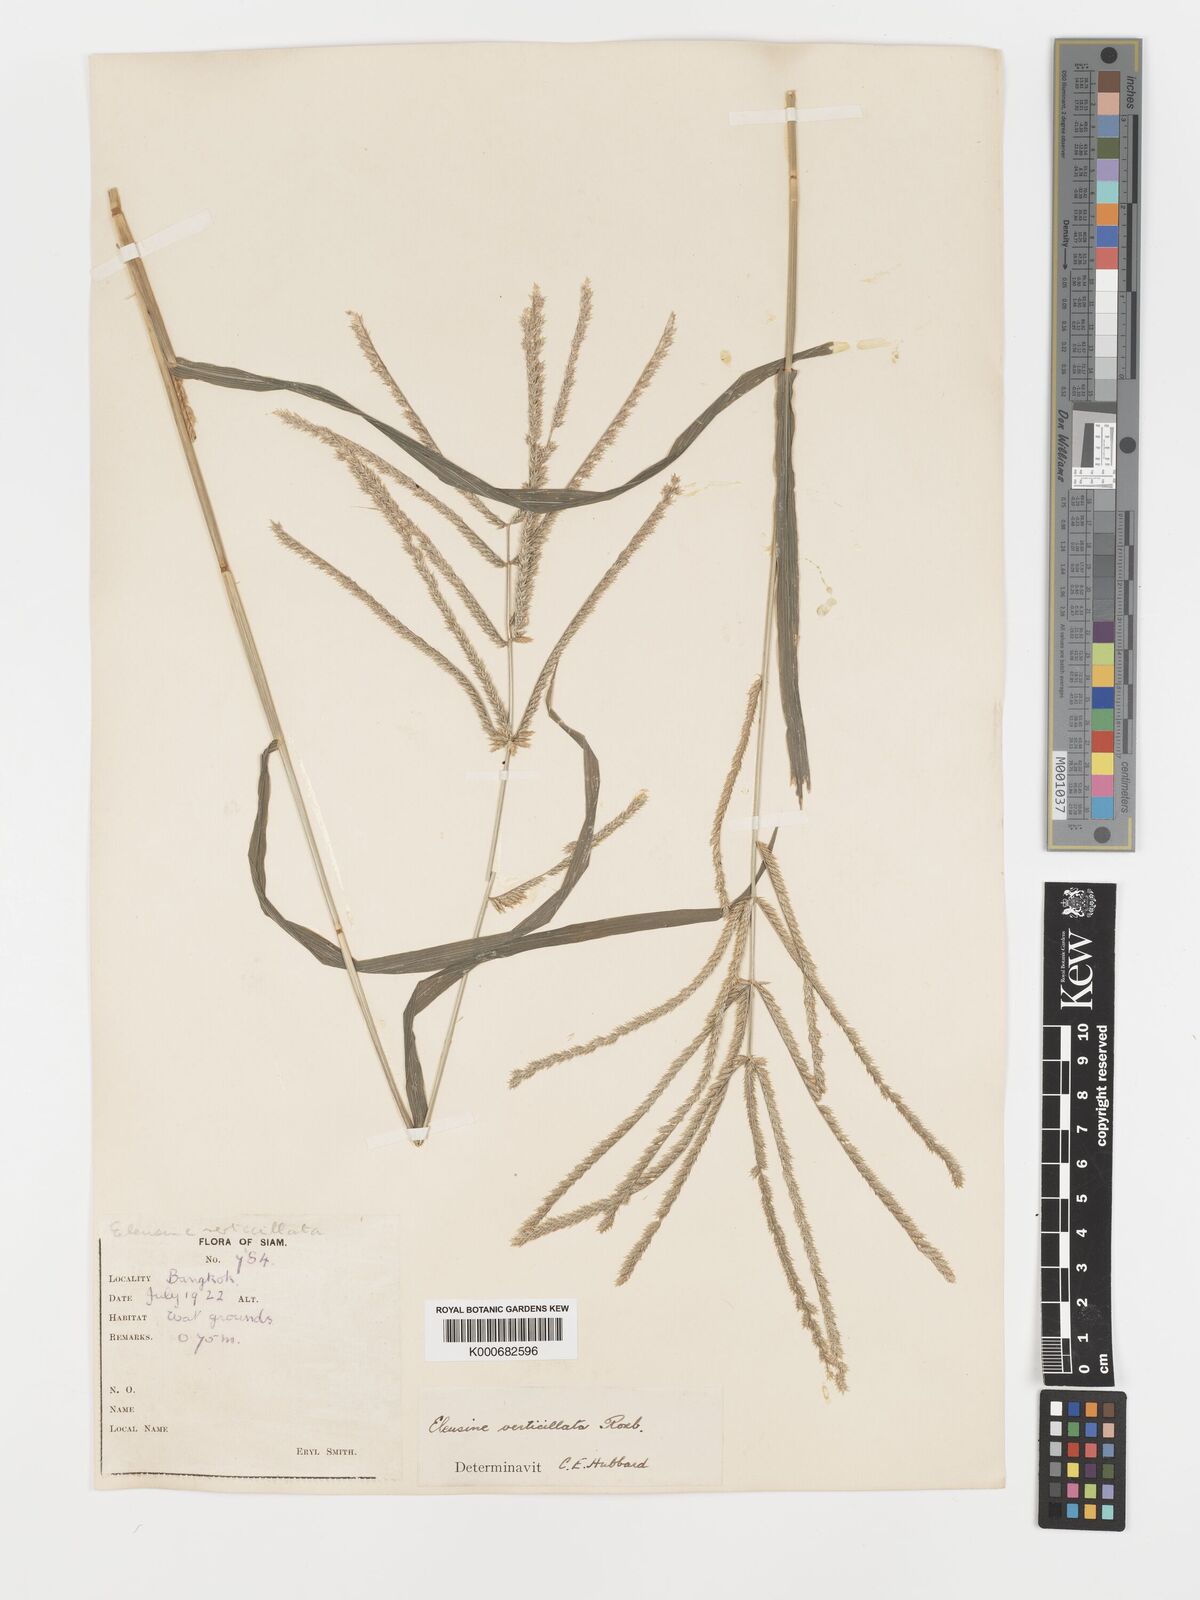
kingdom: Plantae
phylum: Tracheophyta
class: Liliopsida
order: Poales
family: Poaceae
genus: Acrachne
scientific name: Acrachne racemosa
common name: Goosegrass
